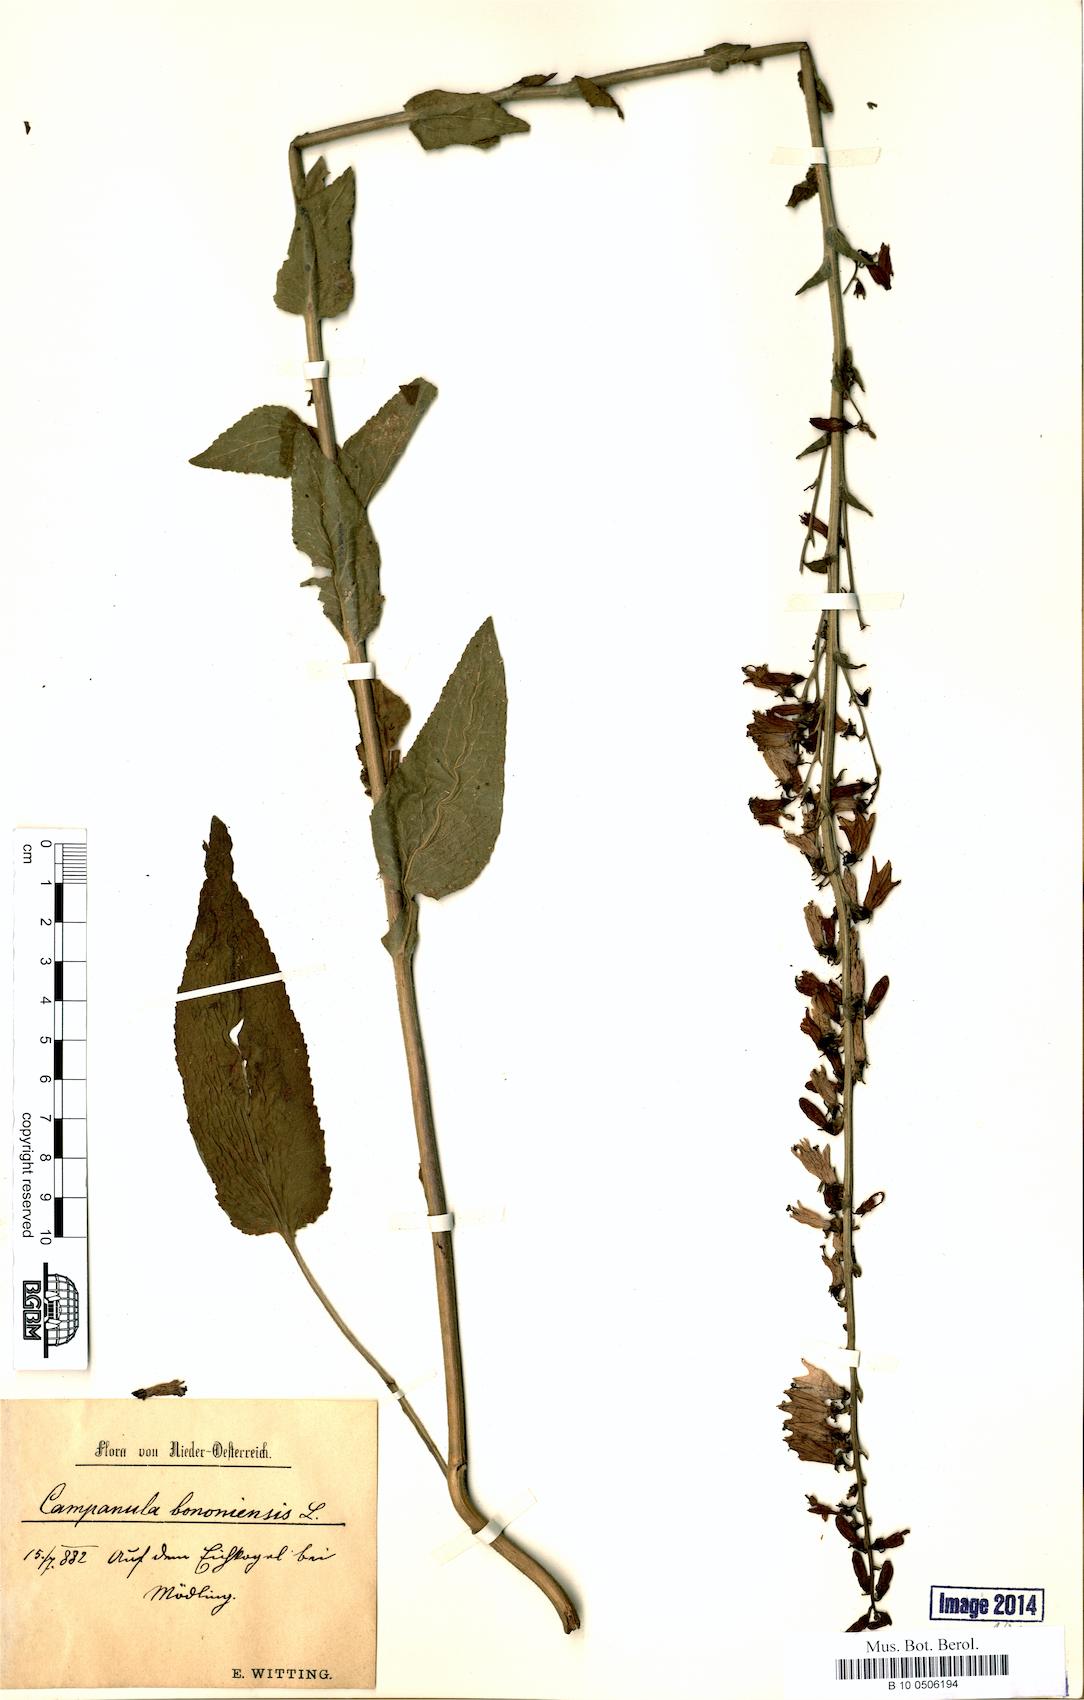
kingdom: Plantae
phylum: Tracheophyta
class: Magnoliopsida
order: Asterales
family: Campanulaceae
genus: Campanula
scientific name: Campanula bononiensis
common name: Pale bellflower
